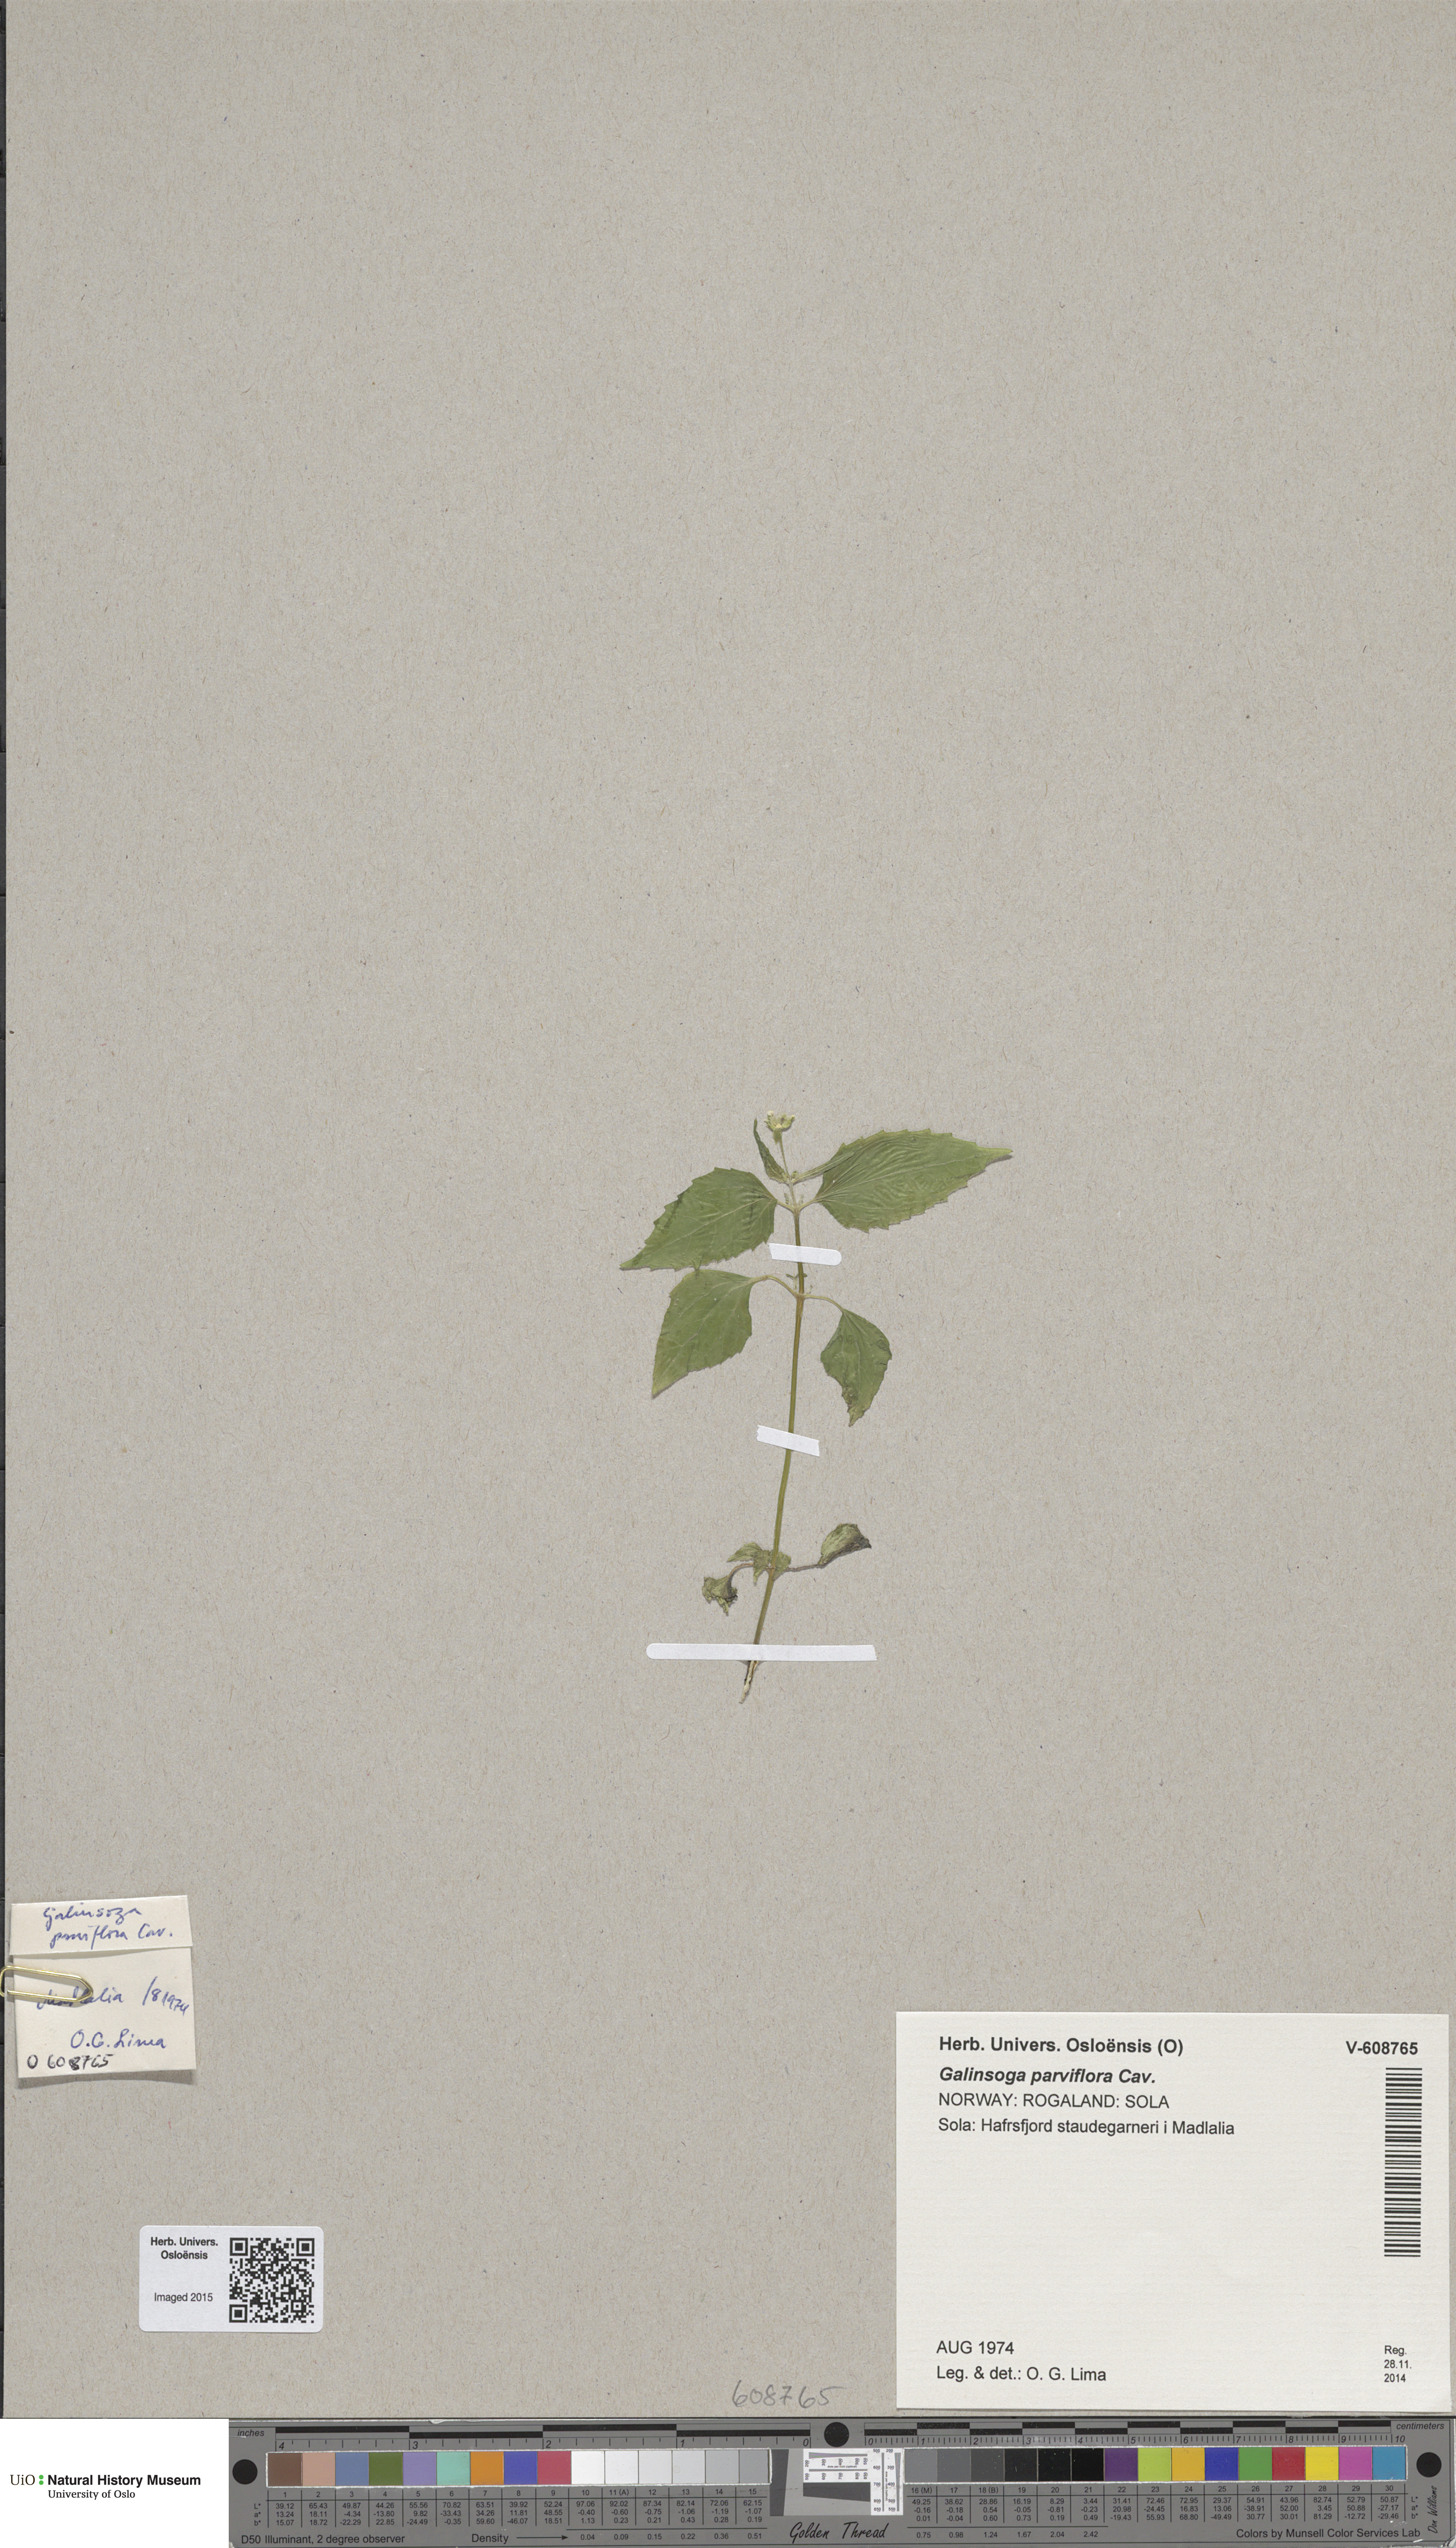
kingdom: Plantae
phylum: Tracheophyta
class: Magnoliopsida
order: Asterales
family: Asteraceae
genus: Galinsoga
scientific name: Galinsoga parviflora
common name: Gallant soldier
